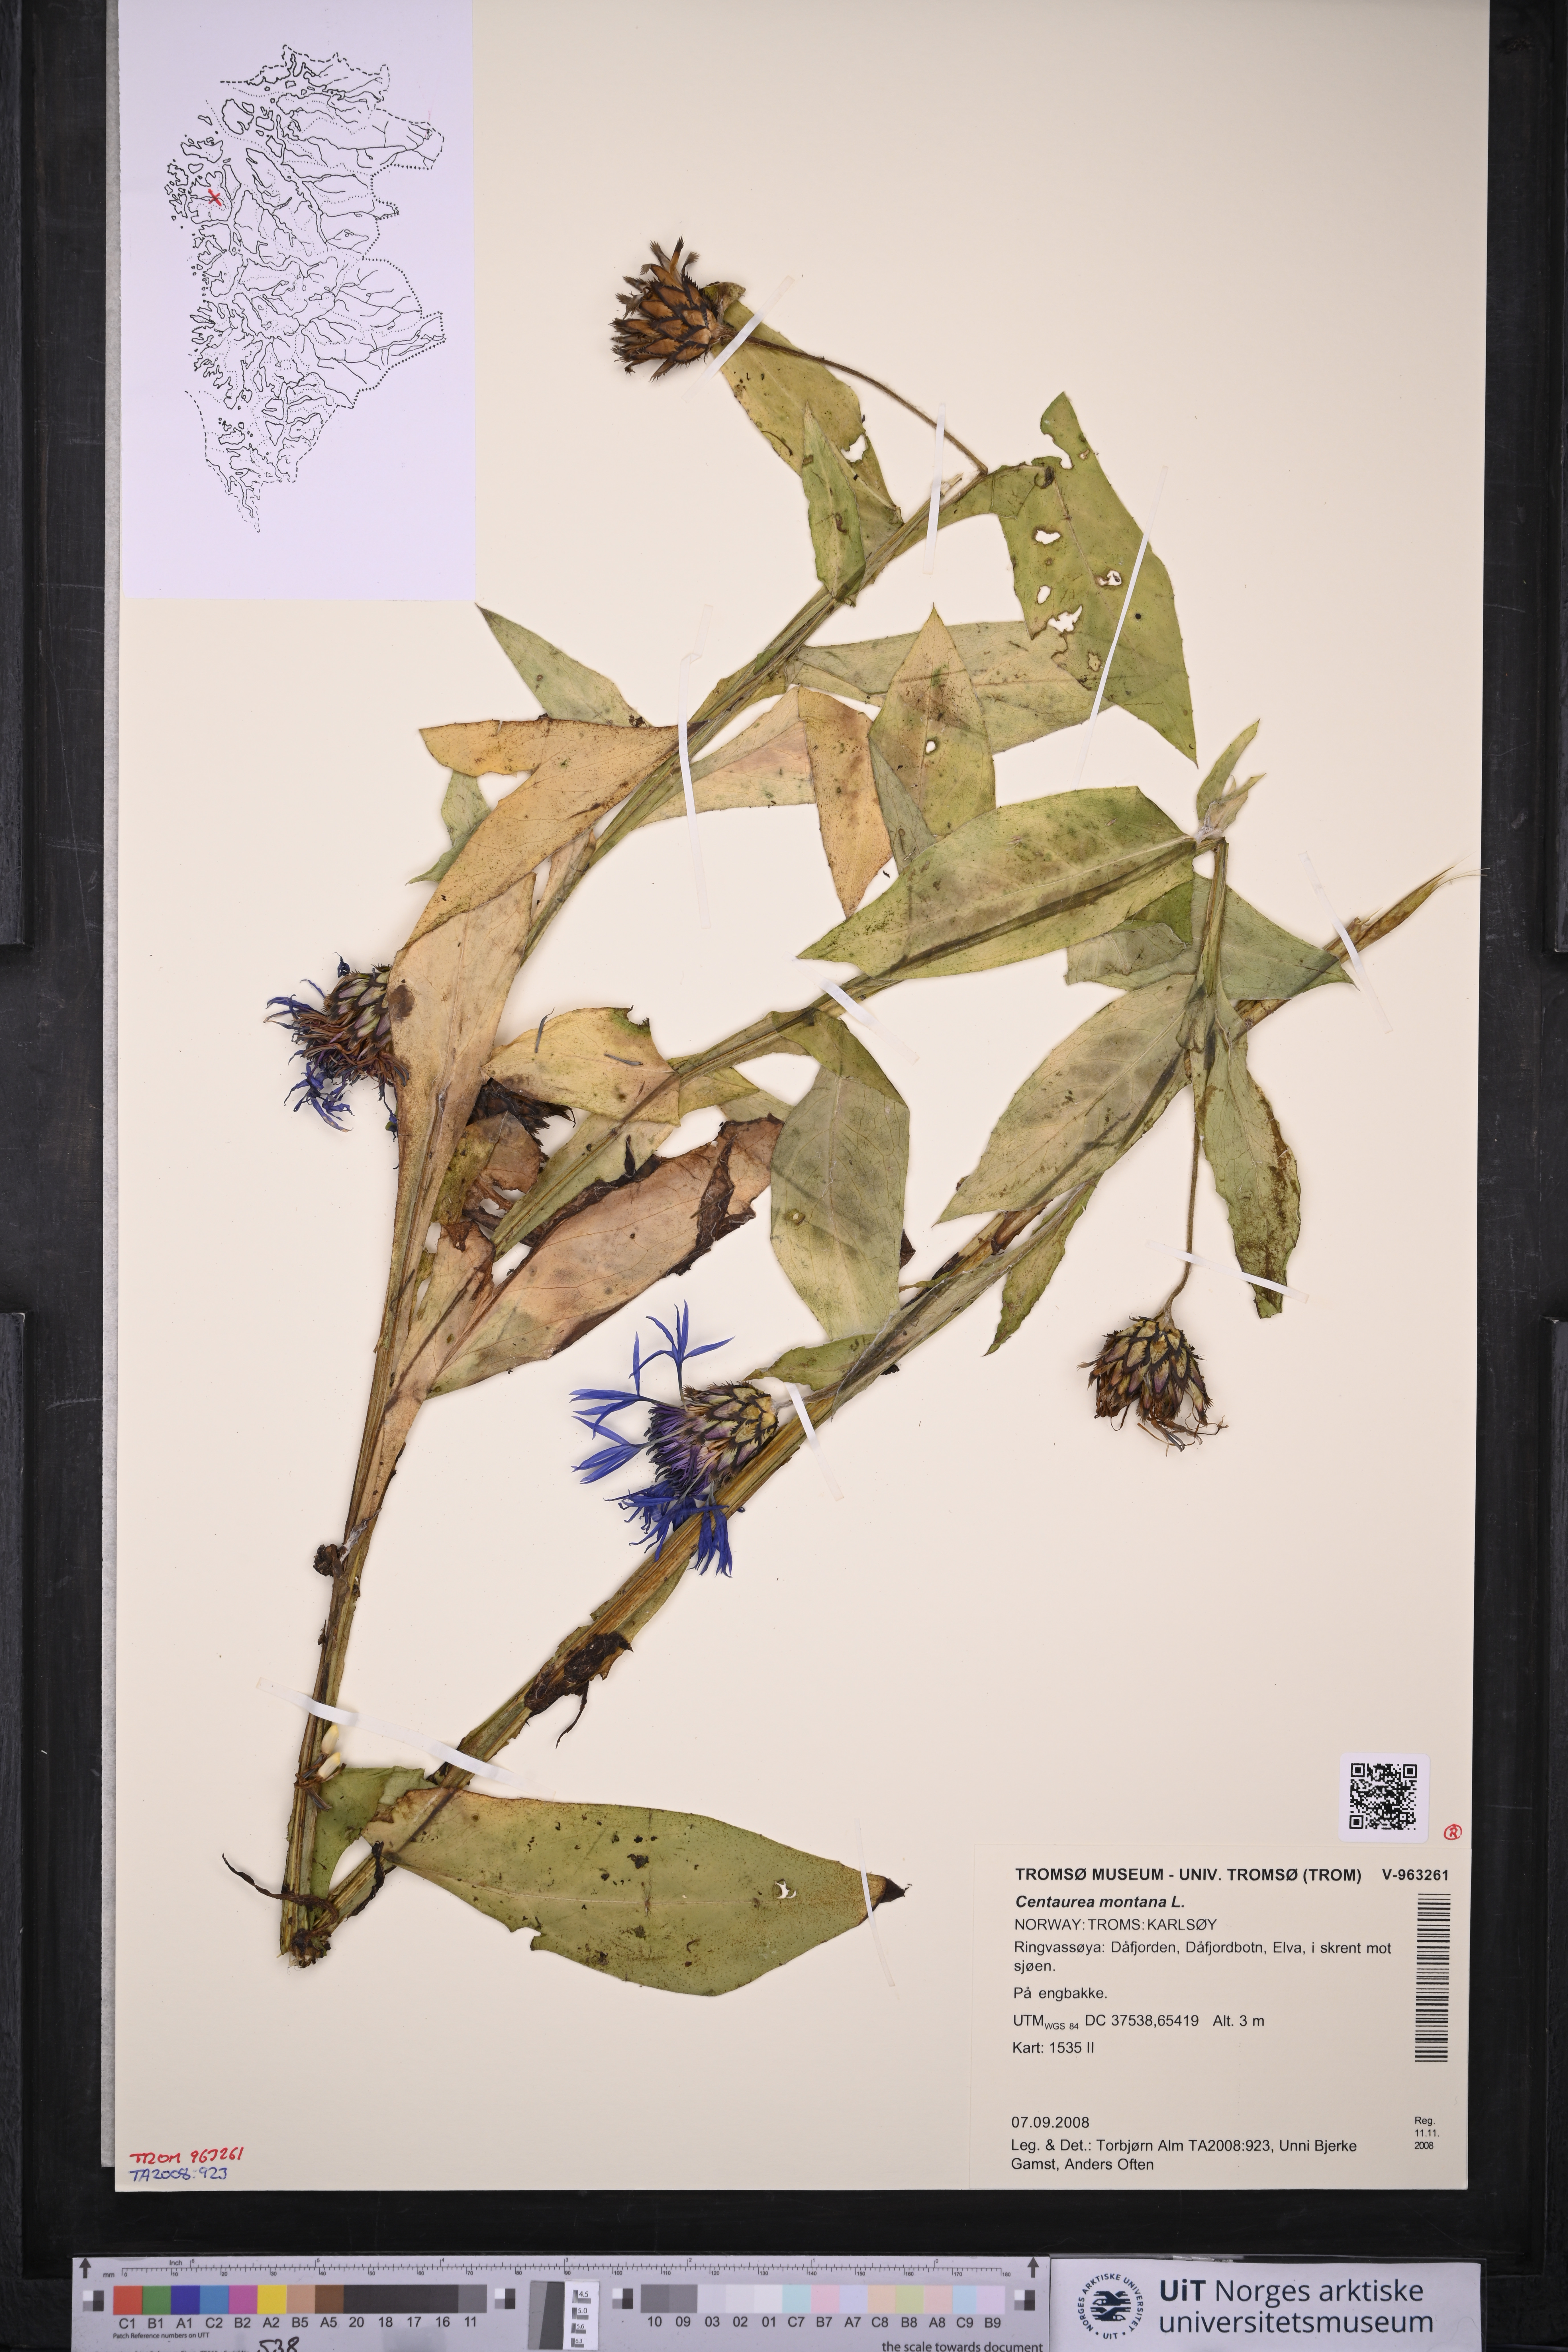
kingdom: Plantae
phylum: Tracheophyta
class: Magnoliopsida
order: Asterales
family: Asteraceae
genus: Centaurea
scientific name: Centaurea montana
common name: Perennial cornflower
